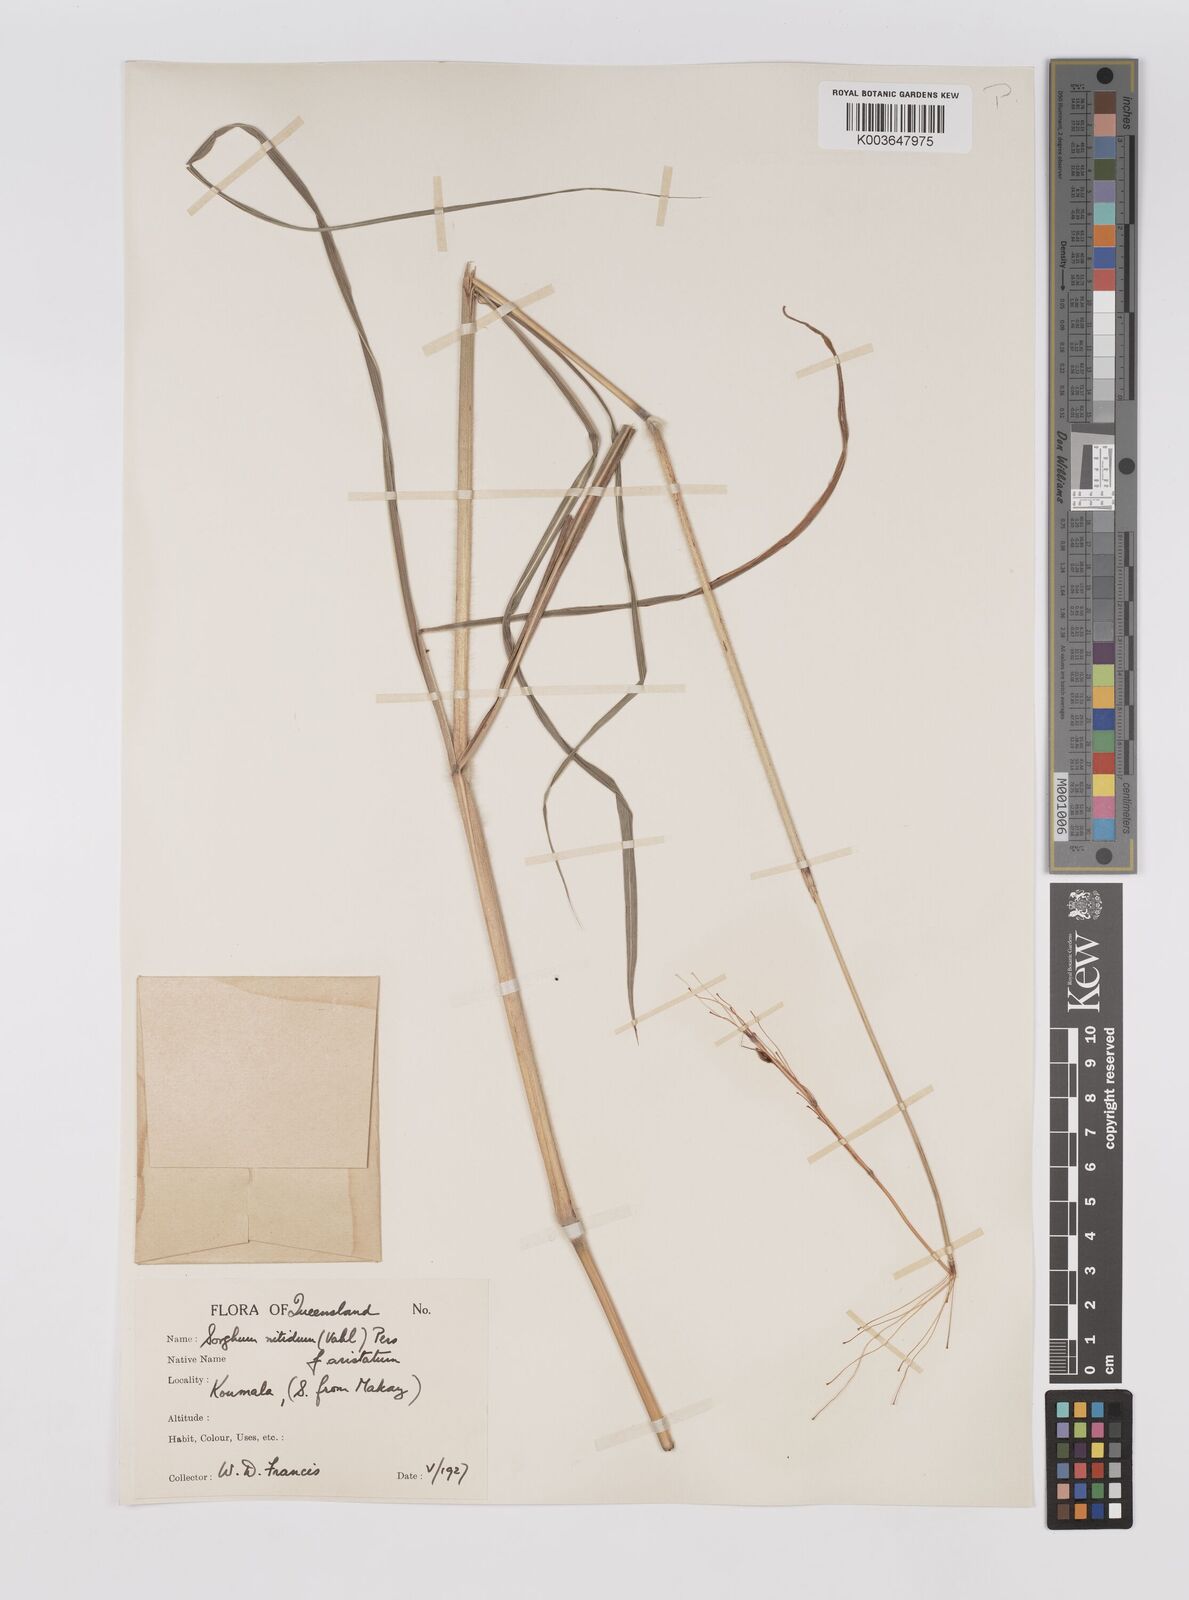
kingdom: Plantae
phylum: Tracheophyta
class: Liliopsida
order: Poales
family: Poaceae
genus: Sorghum
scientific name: Sorghum nitidum
